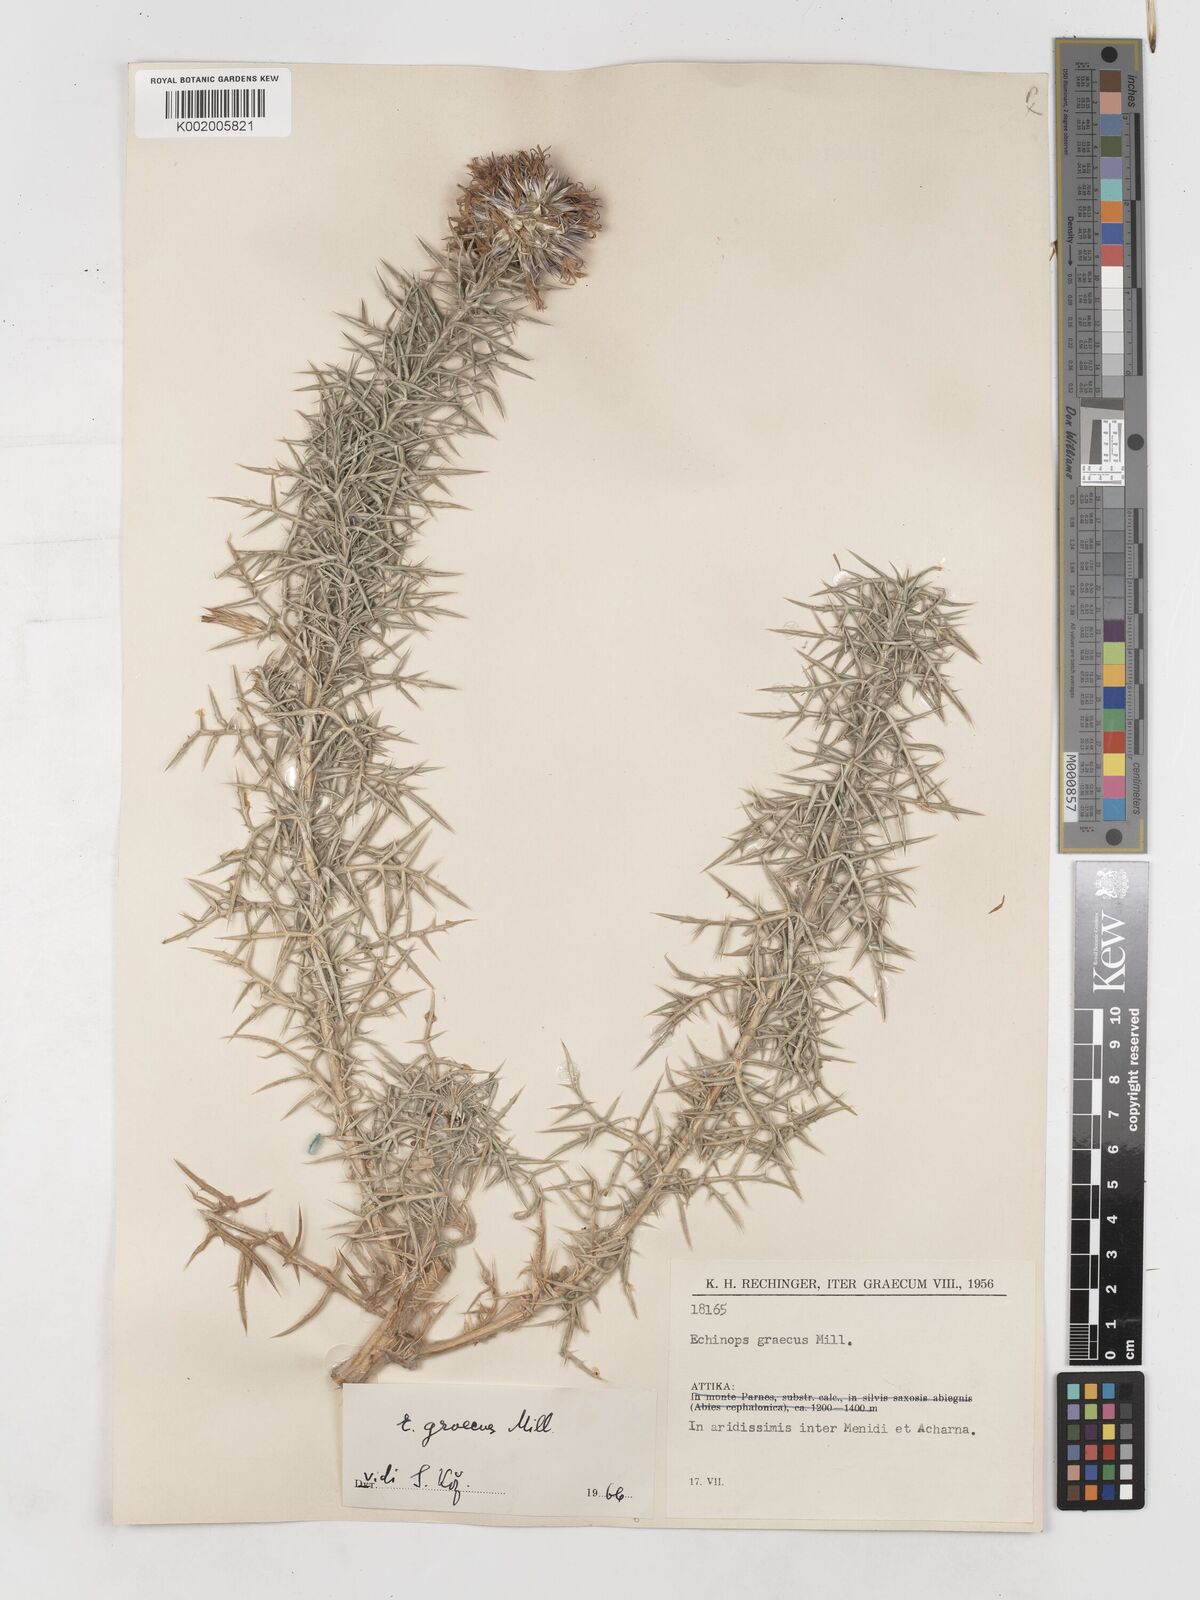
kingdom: Plantae
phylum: Tracheophyta
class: Magnoliopsida
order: Asterales
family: Asteraceae
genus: Echinops
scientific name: Echinops graecus
